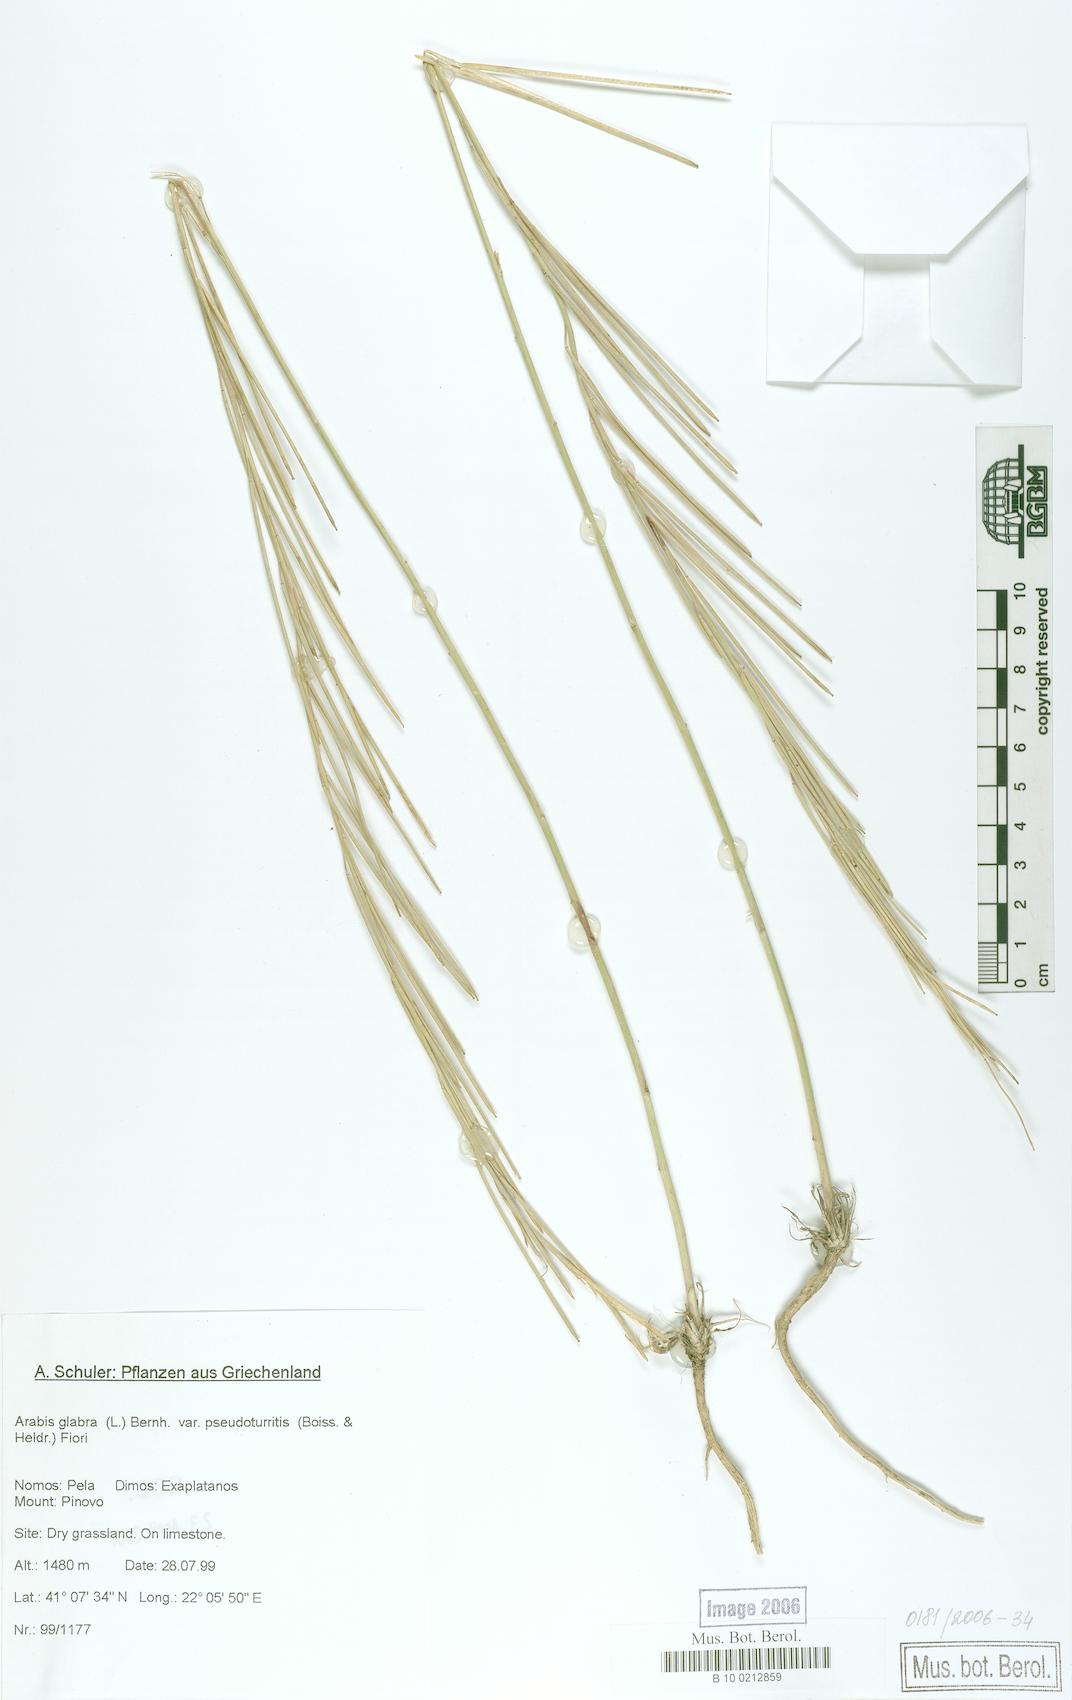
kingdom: Plantae
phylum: Tracheophyta
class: Magnoliopsida
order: Brassicales
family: Brassicaceae
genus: Turritis
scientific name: Turritis glabra
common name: Tower rockcress
